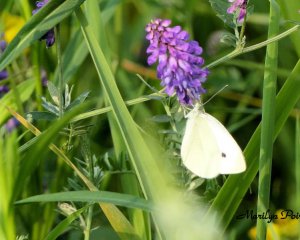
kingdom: Animalia
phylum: Arthropoda
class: Insecta
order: Lepidoptera
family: Pieridae
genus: Pieris
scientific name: Pieris rapae
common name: Cabbage White
